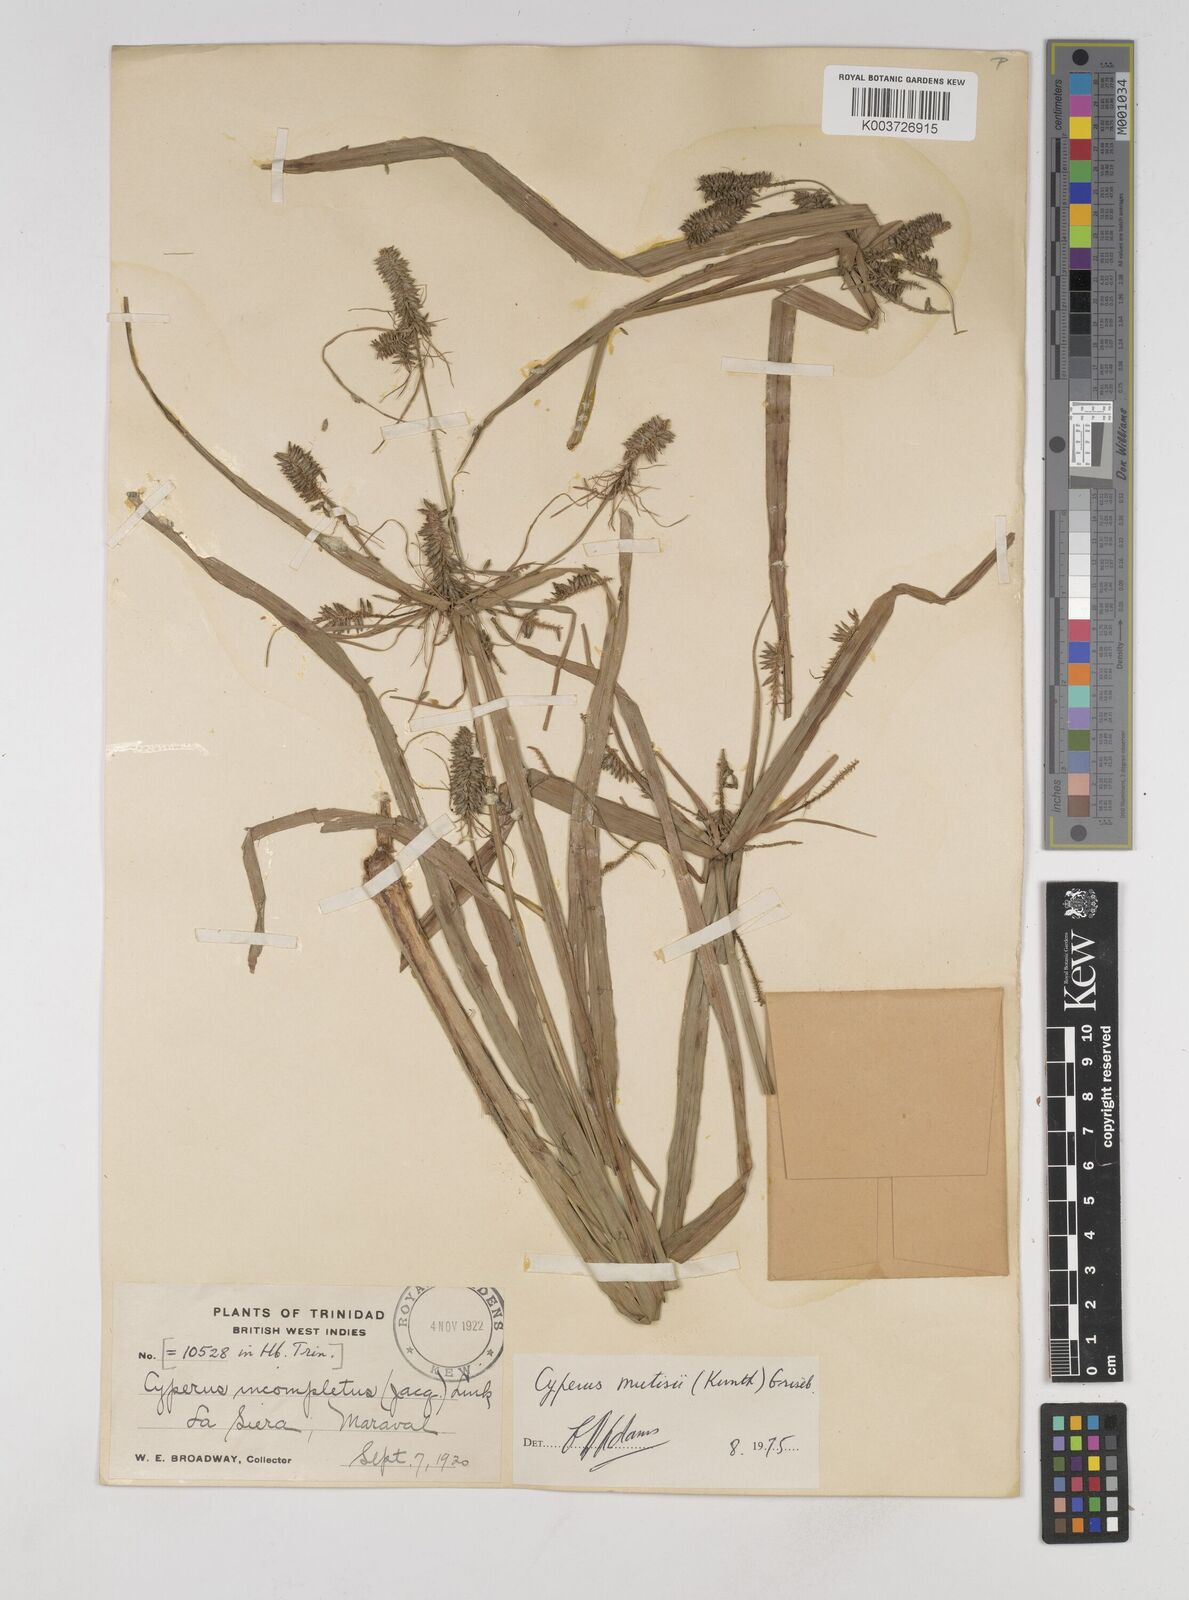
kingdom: Plantae
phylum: Tracheophyta
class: Liliopsida
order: Poales
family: Cyperaceae
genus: Cyperus
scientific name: Cyperus
